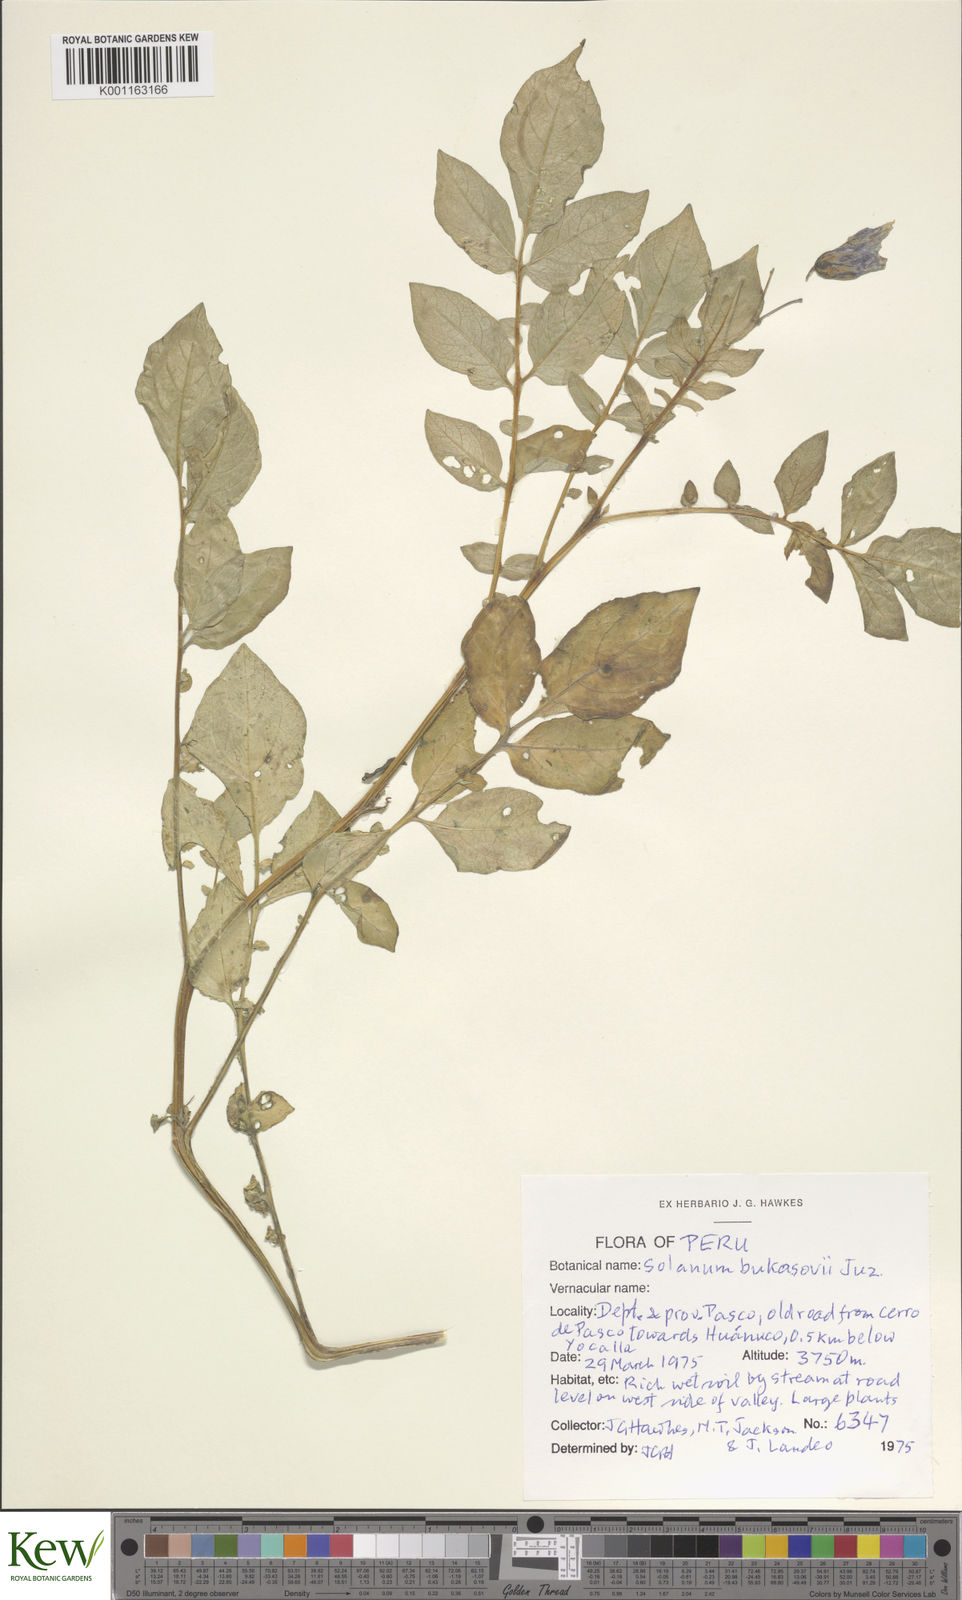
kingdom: Plantae
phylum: Tracheophyta
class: Magnoliopsida
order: Solanales
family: Solanaceae
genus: Solanum
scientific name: Solanum candolleanum
